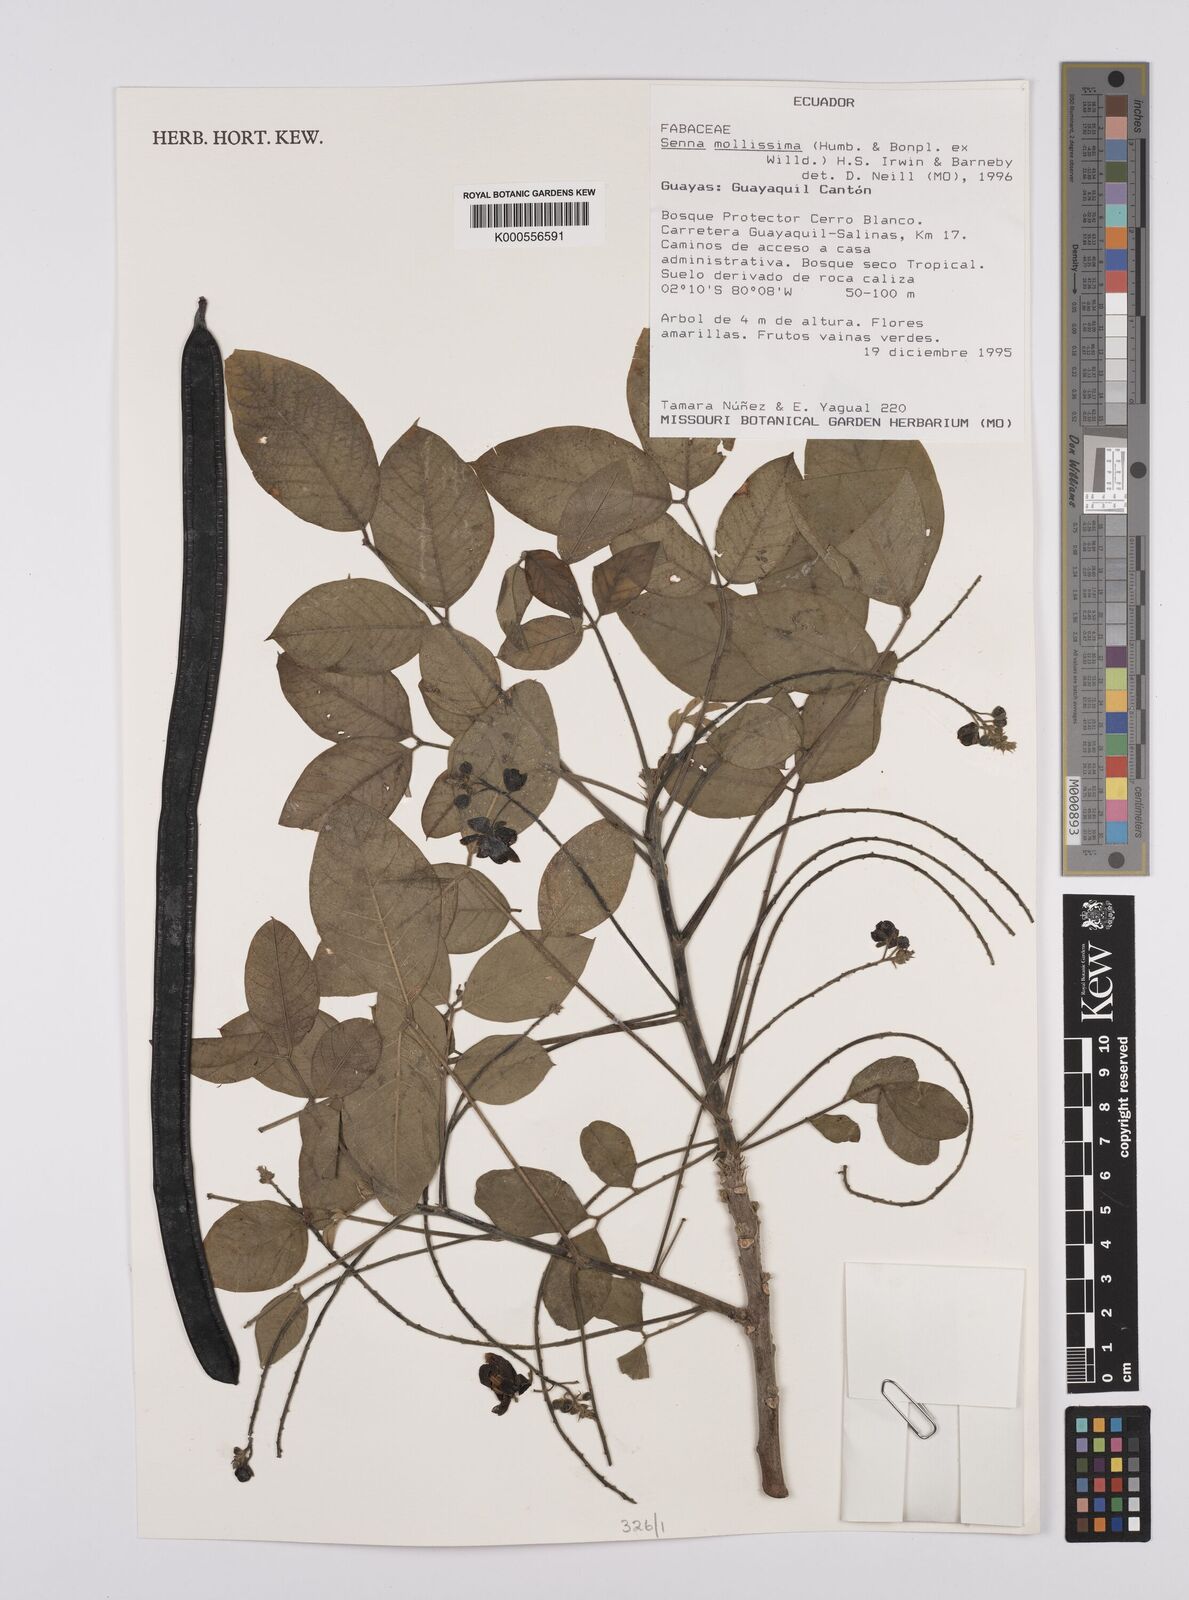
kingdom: Plantae
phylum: Tracheophyta
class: Magnoliopsida
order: Fabales
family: Fabaceae
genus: Senna
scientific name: Senna mollissima
